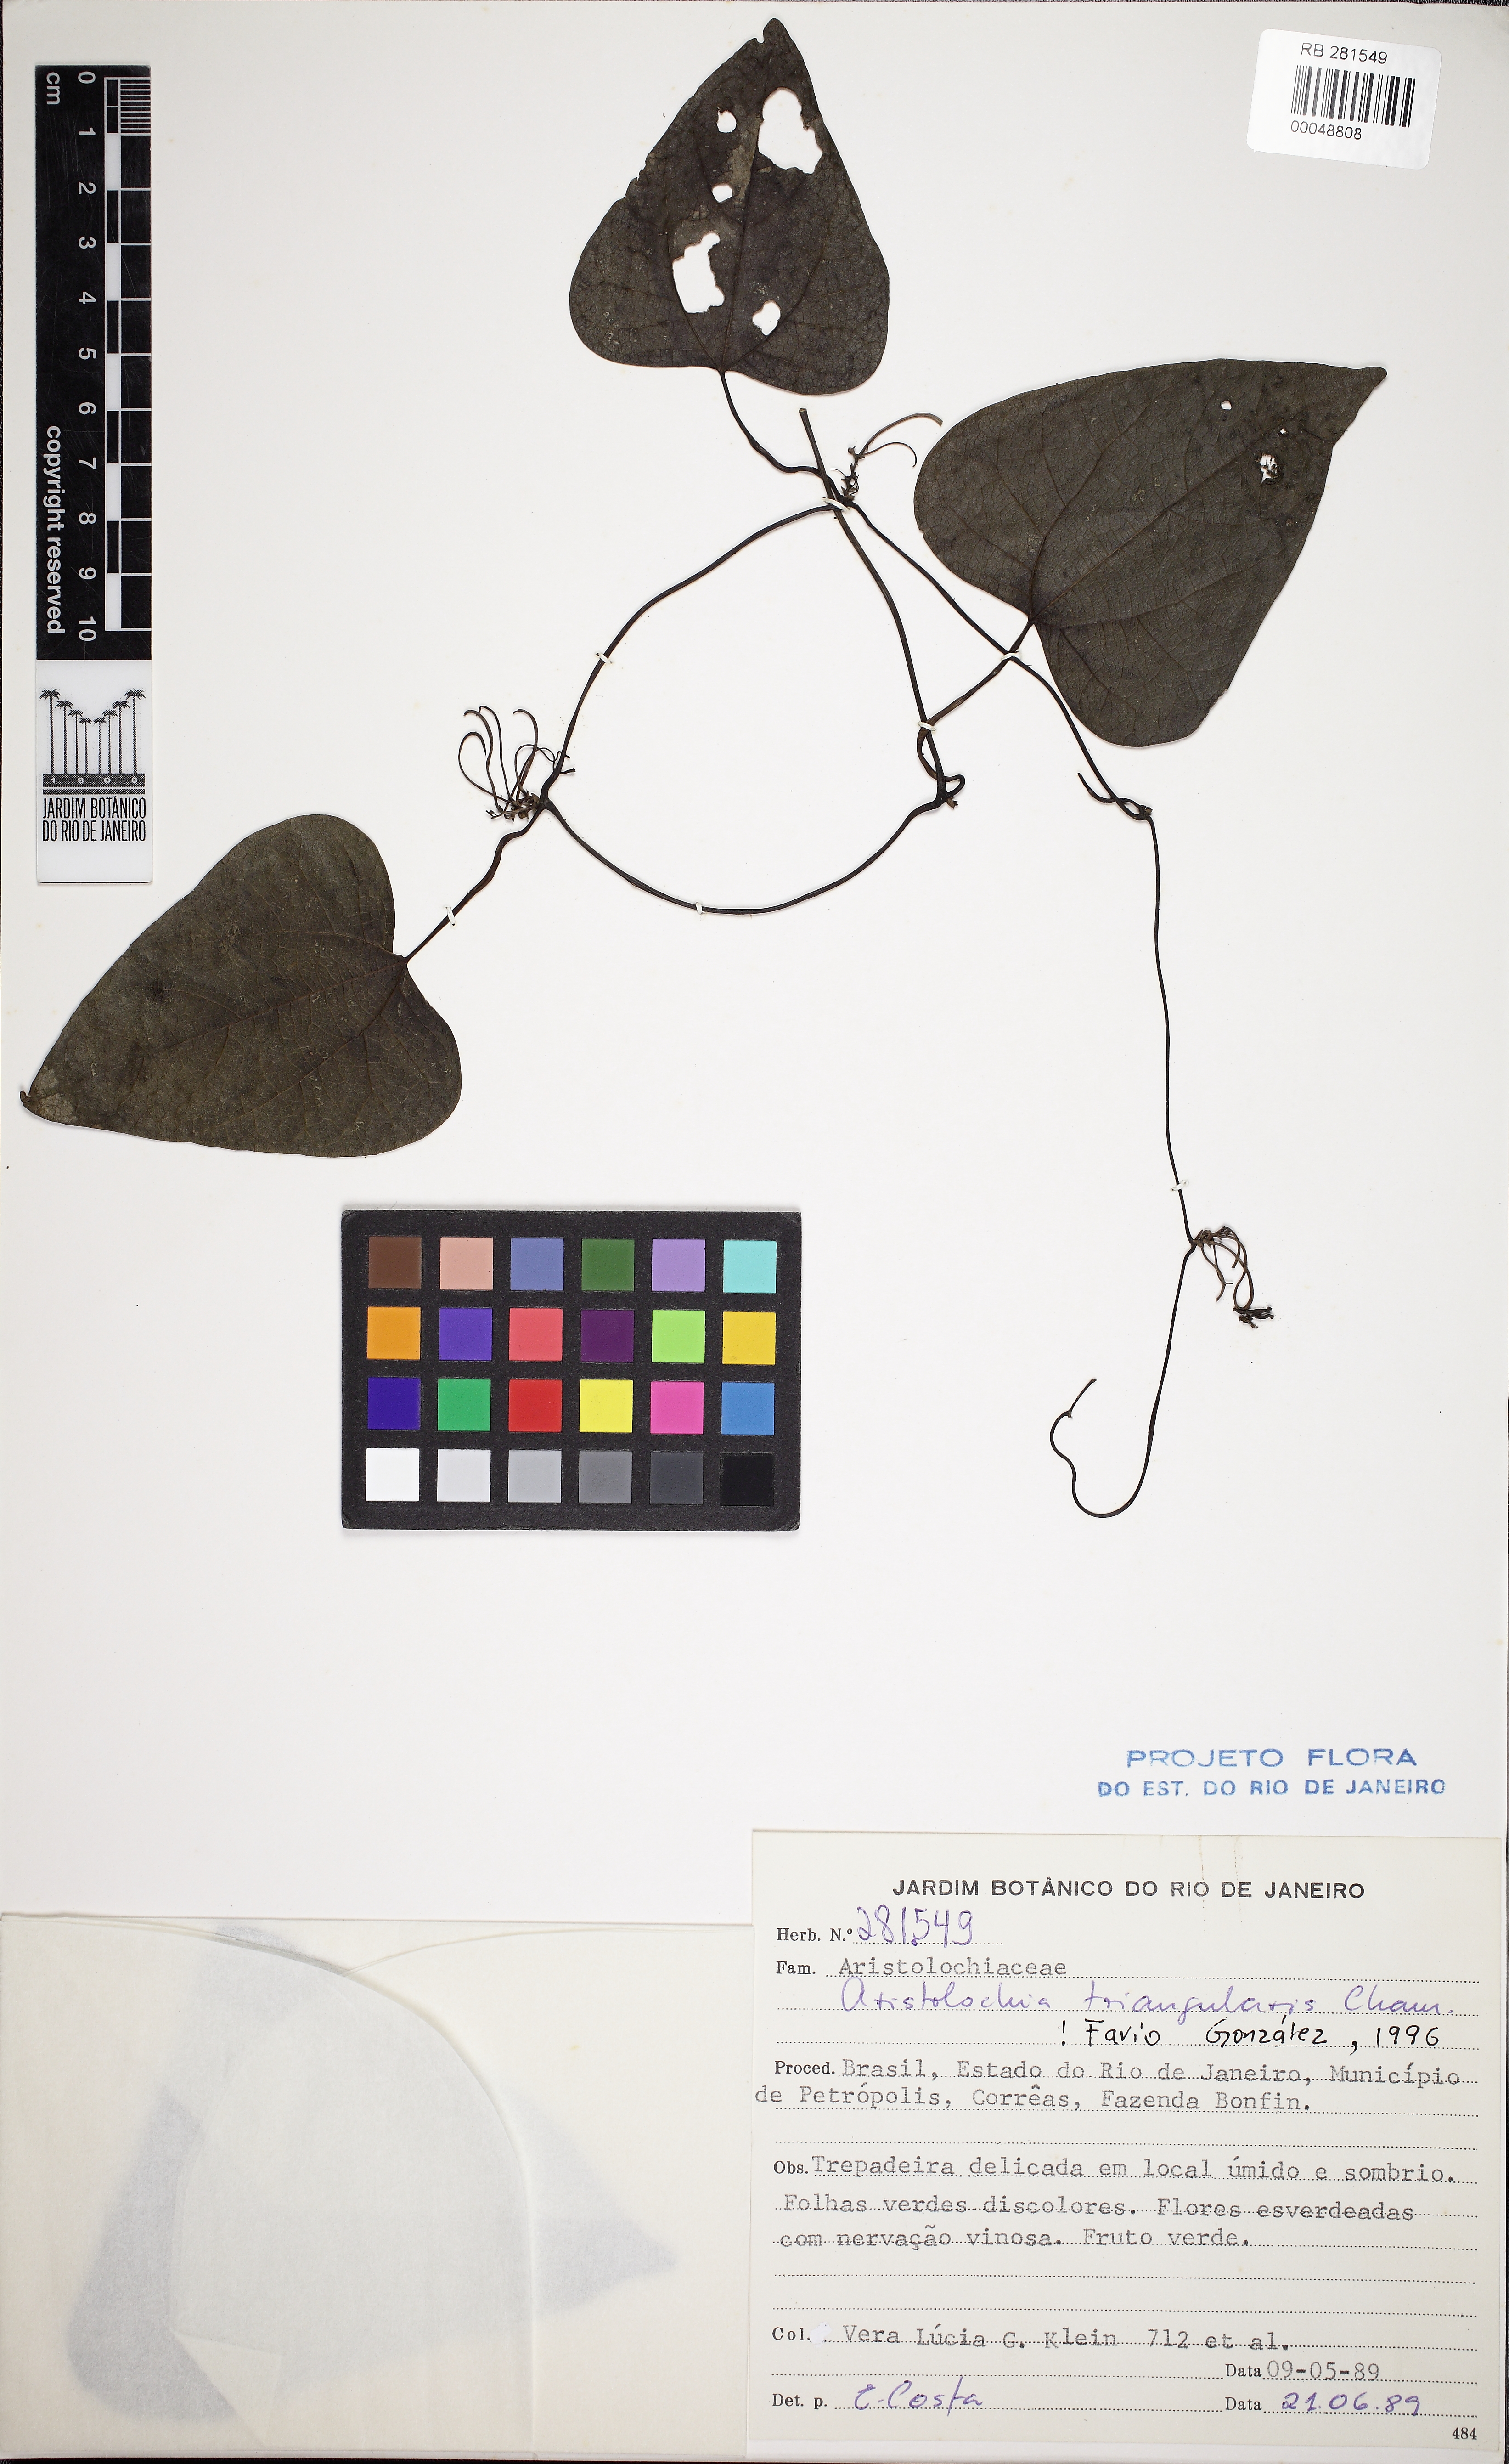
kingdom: Plantae
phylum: Tracheophyta
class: Magnoliopsida
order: Piperales
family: Aristolochiaceae
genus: Aristolochia
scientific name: Aristolochia triangularis
